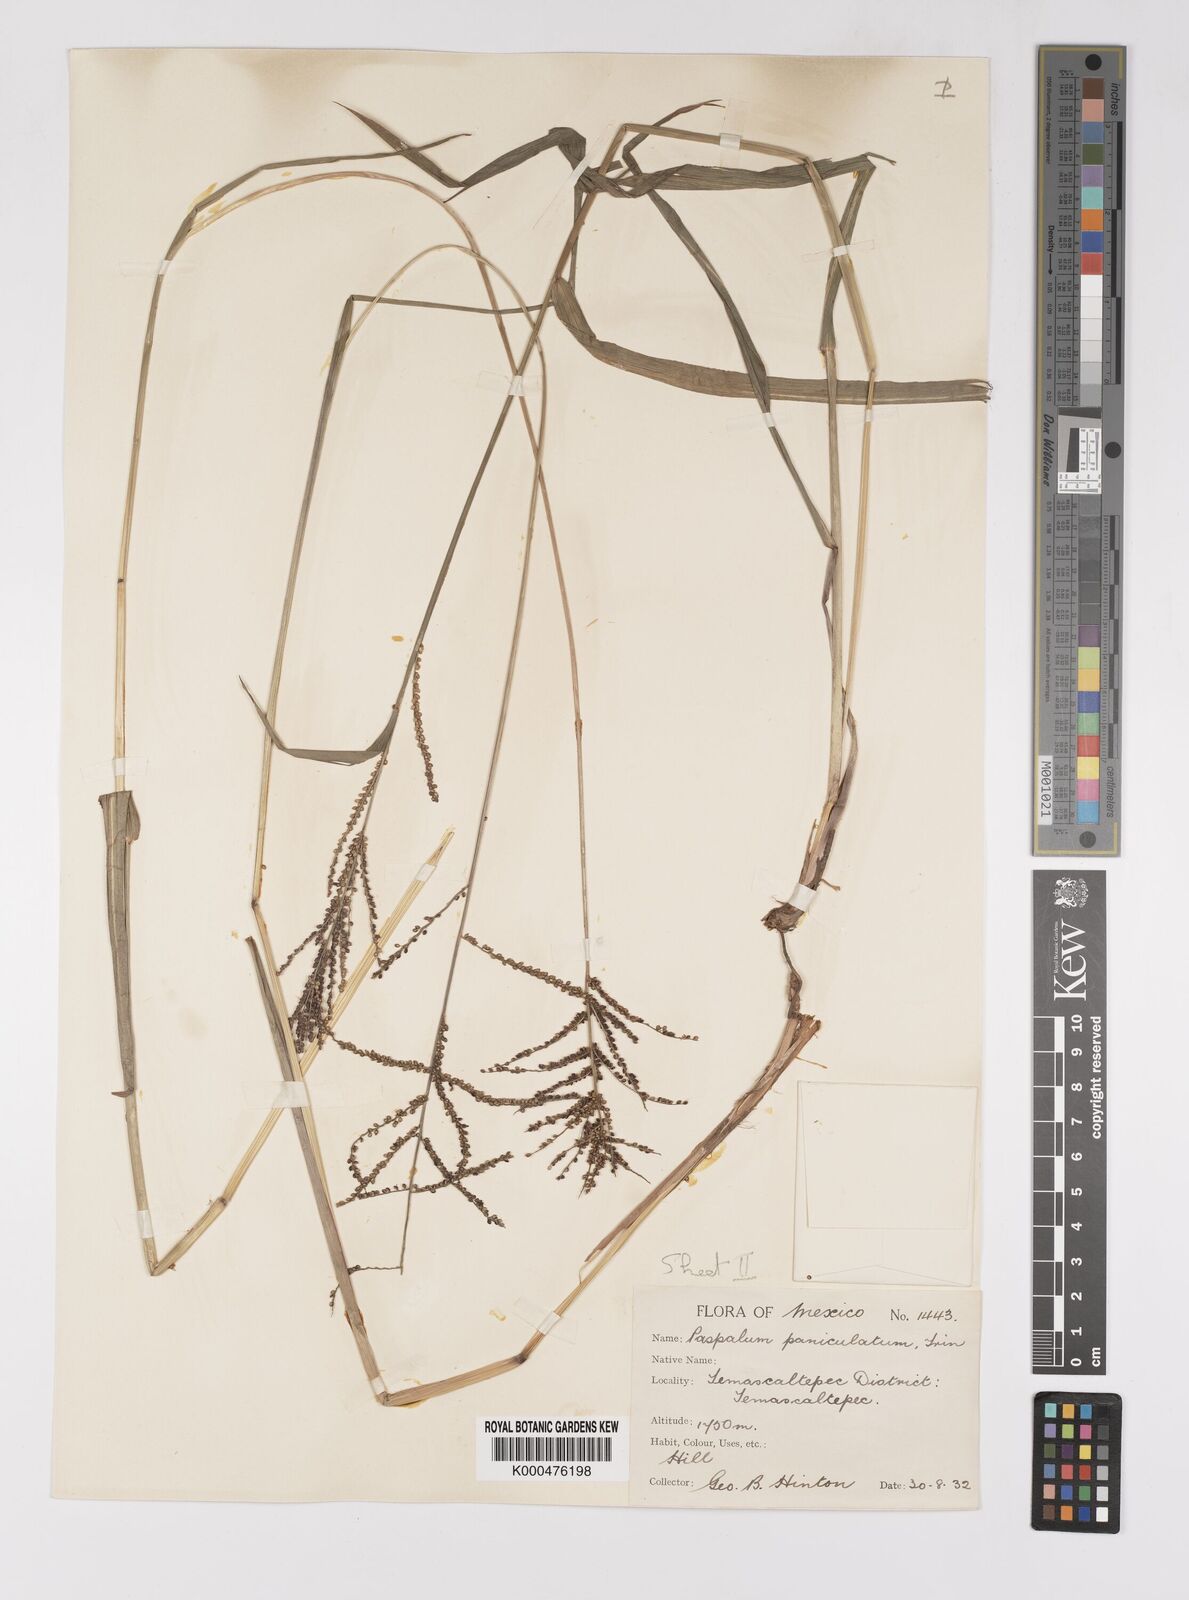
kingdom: Plantae
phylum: Tracheophyta
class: Liliopsida
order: Poales
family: Poaceae
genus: Paspalum
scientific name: Paspalum paniculatum
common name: Arrocillo
